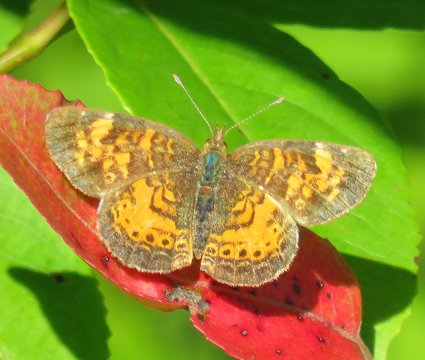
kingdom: Animalia
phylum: Arthropoda
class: Insecta
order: Lepidoptera
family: Nymphalidae
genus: Phyciodes
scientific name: Phyciodes tharos
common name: Northern Crescent
